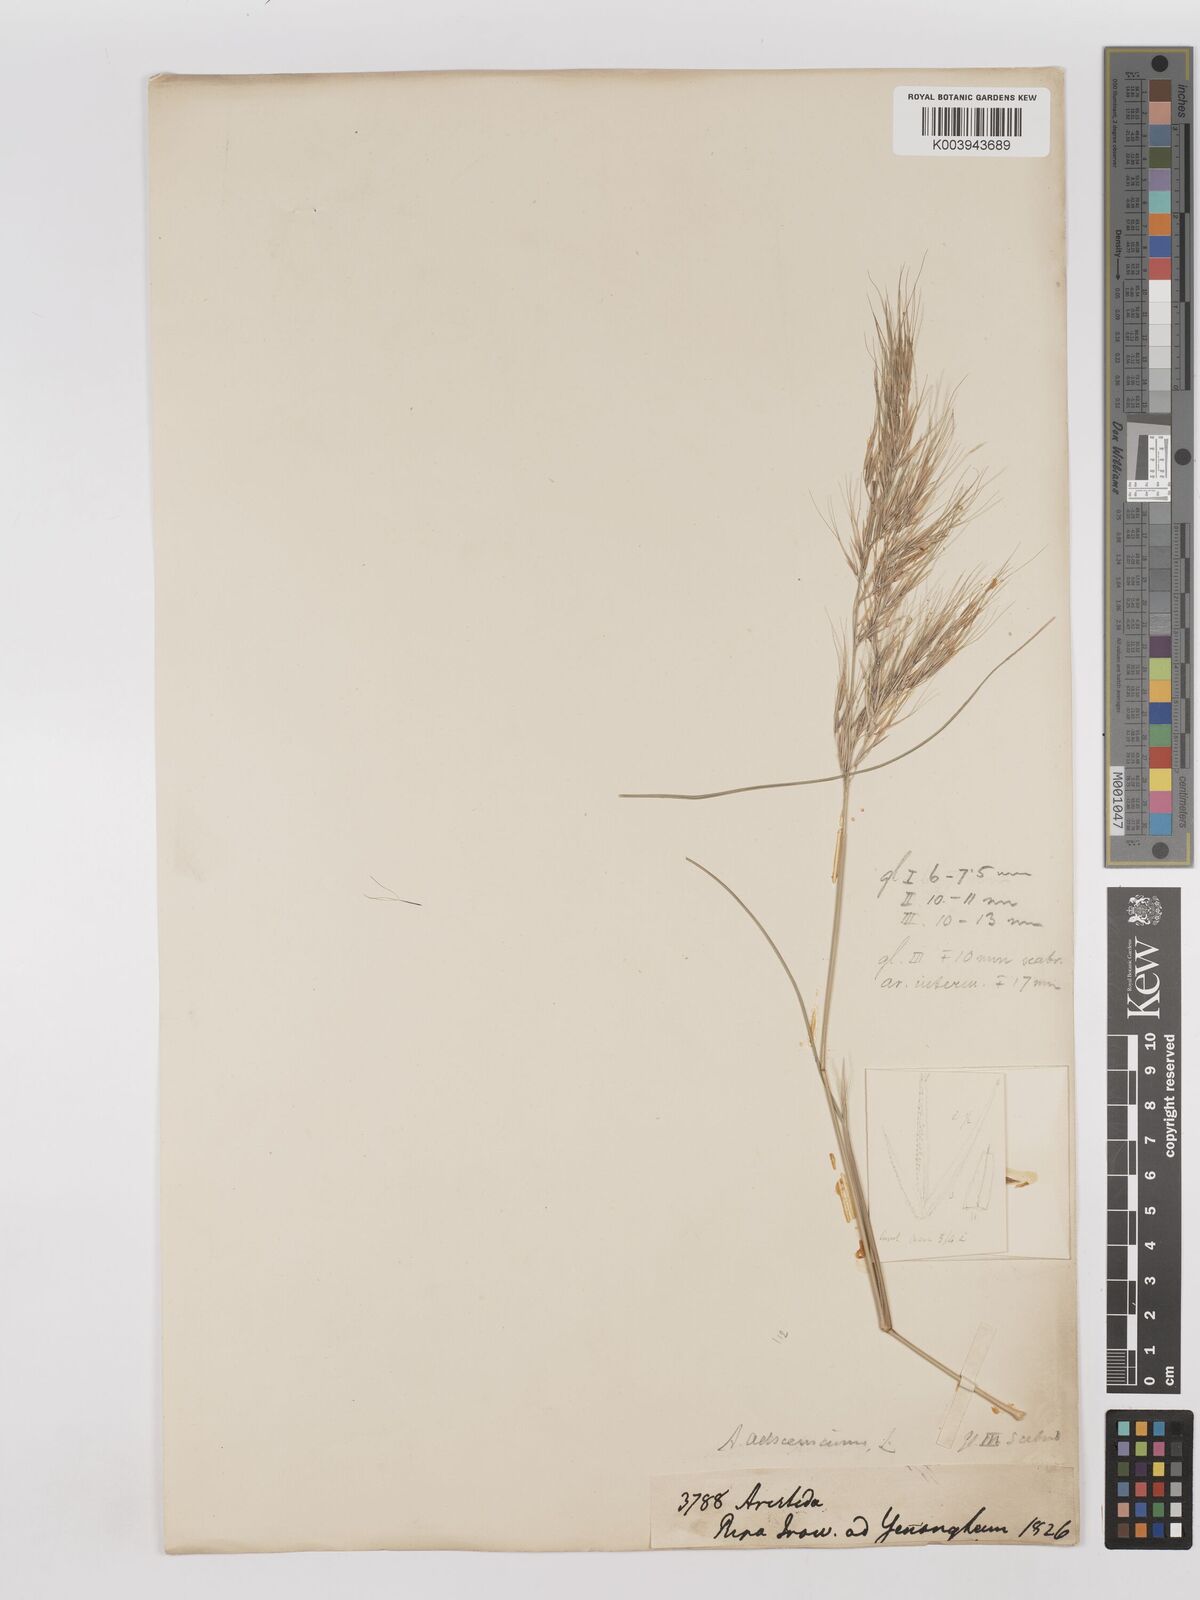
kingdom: Plantae
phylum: Tracheophyta
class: Liliopsida
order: Poales
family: Poaceae
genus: Aristida
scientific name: Aristida adscensionis
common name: Sixweeks threeawn
